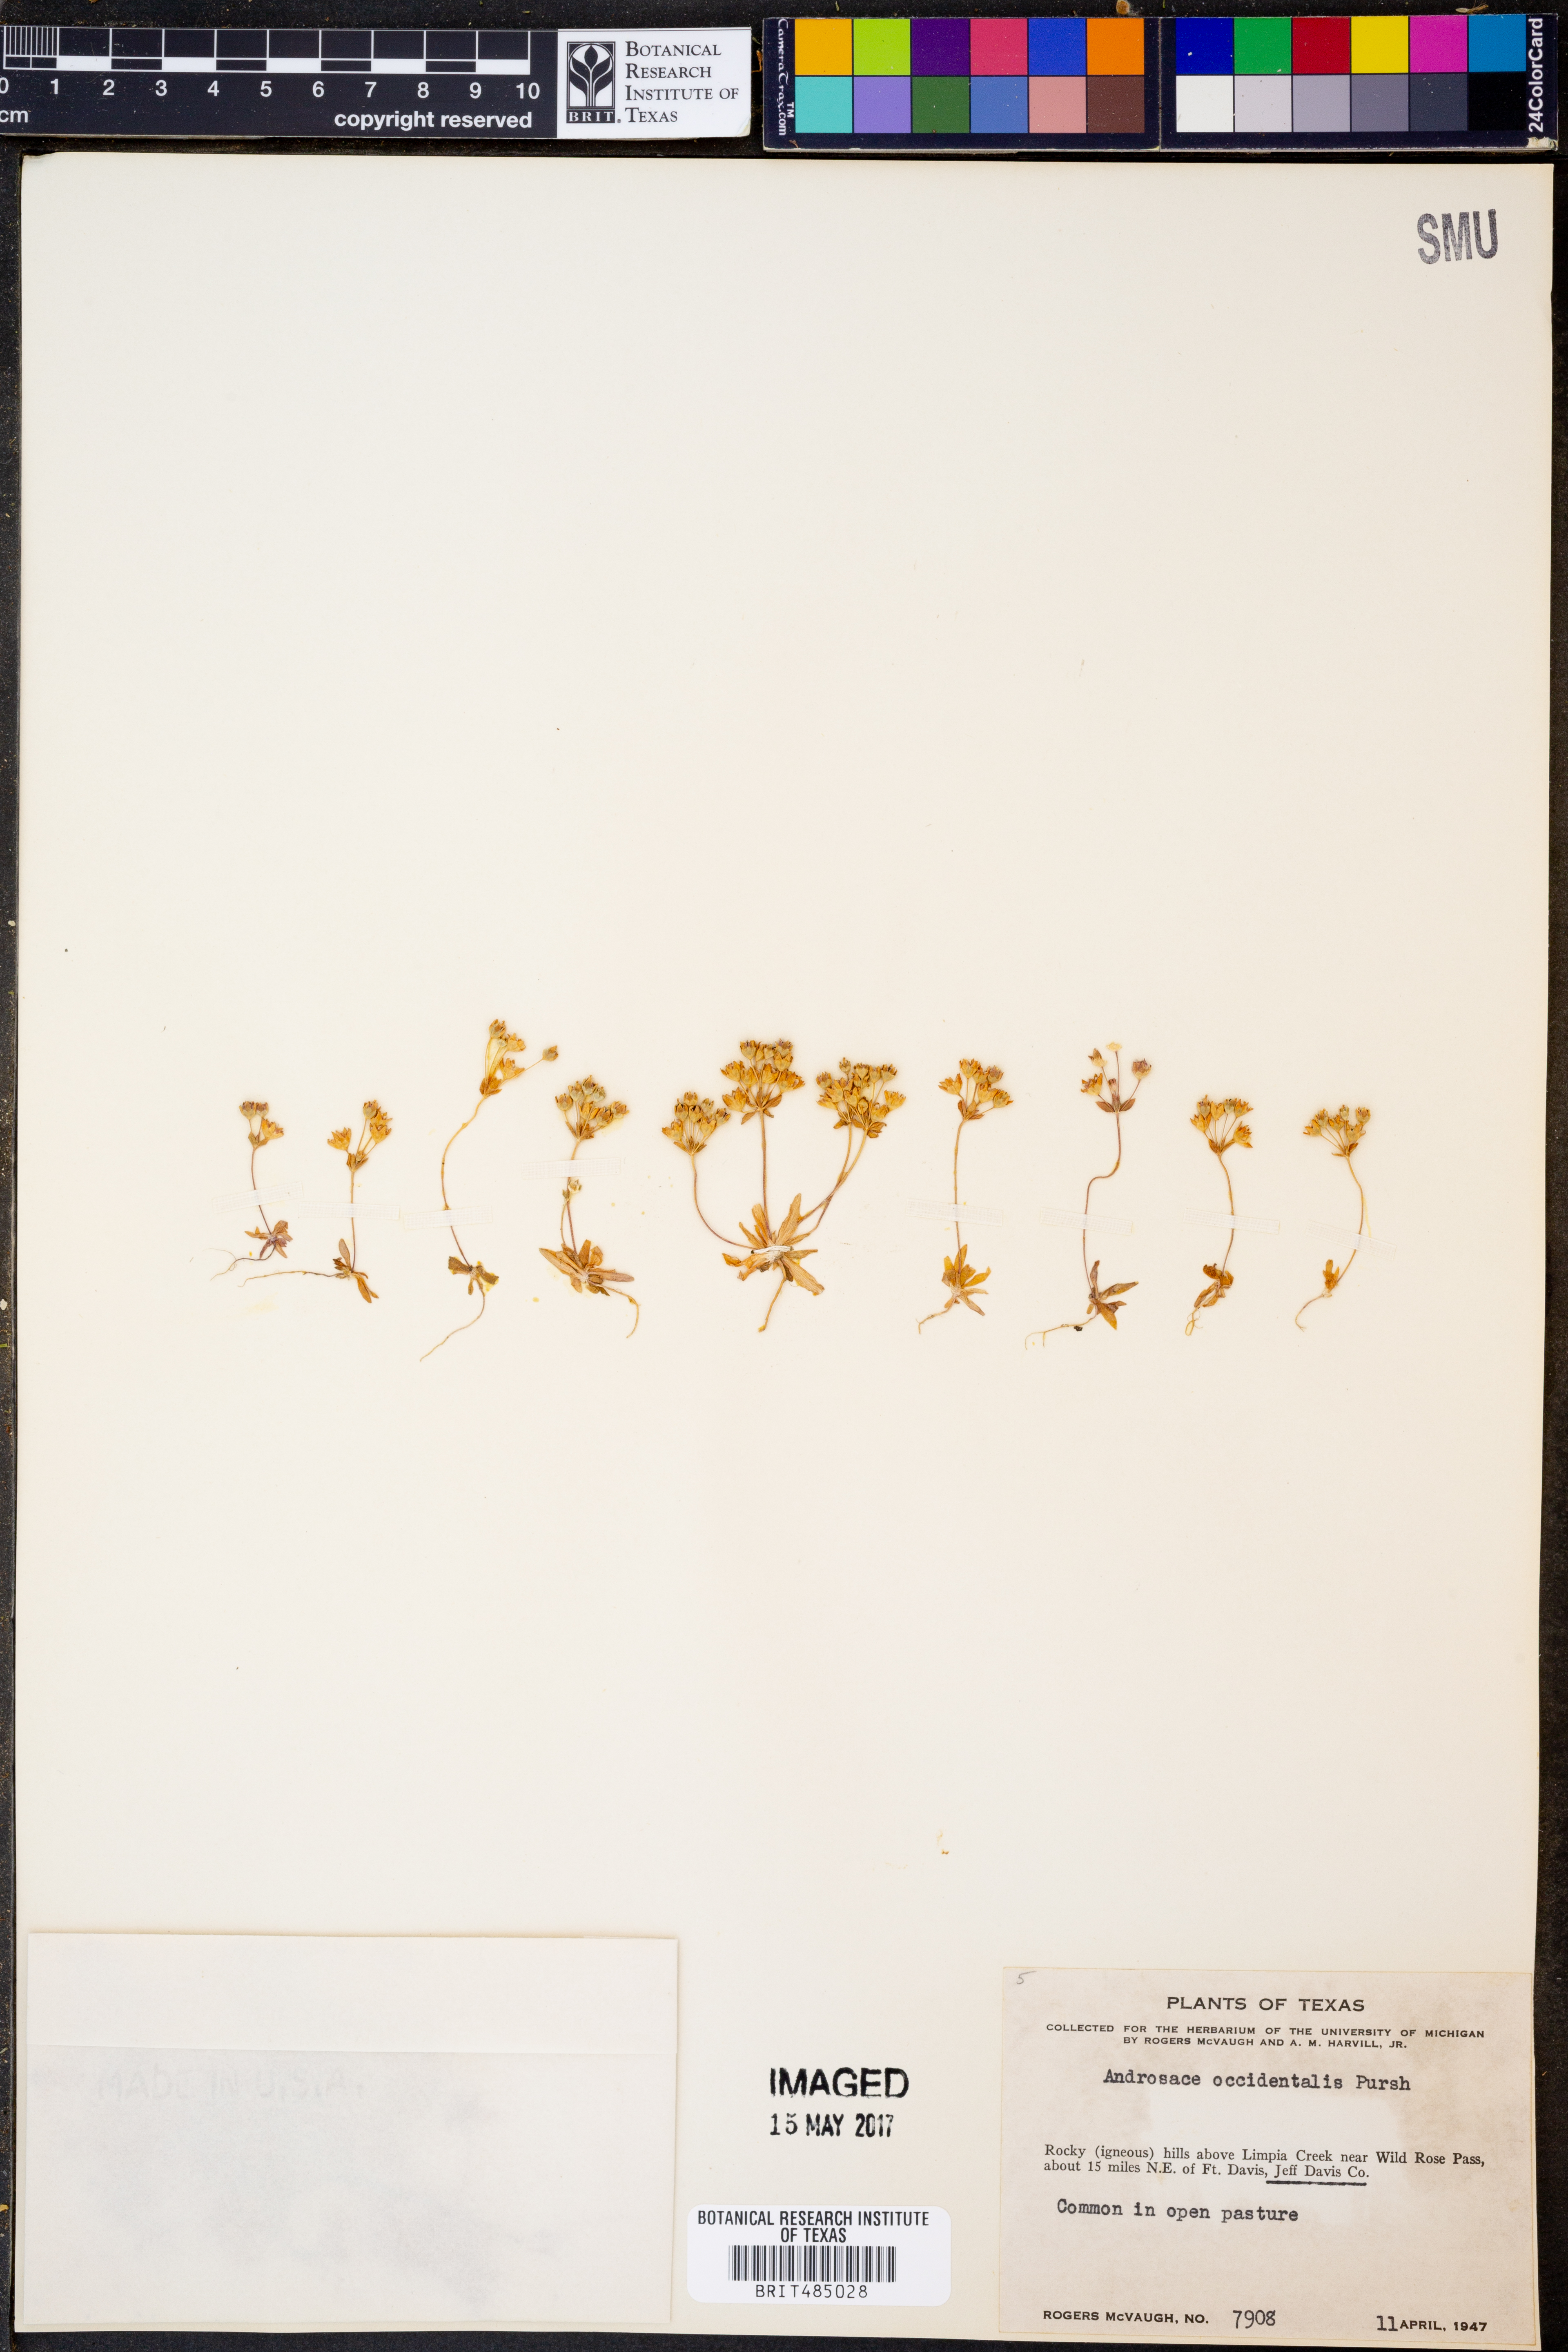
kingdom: Plantae
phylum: Tracheophyta
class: Magnoliopsida
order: Ericales
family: Primulaceae
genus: Androsace
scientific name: Androsace occidentalis
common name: West rock-jasmine
